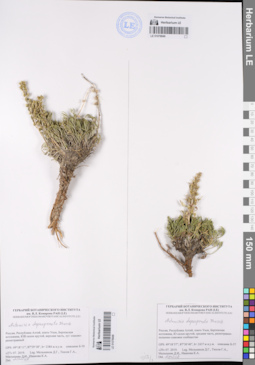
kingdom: Plantae
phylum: Tracheophyta
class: Magnoliopsida
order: Asterales
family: Asteraceae
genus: Artemisia
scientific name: Artemisia pycnorrhiza
